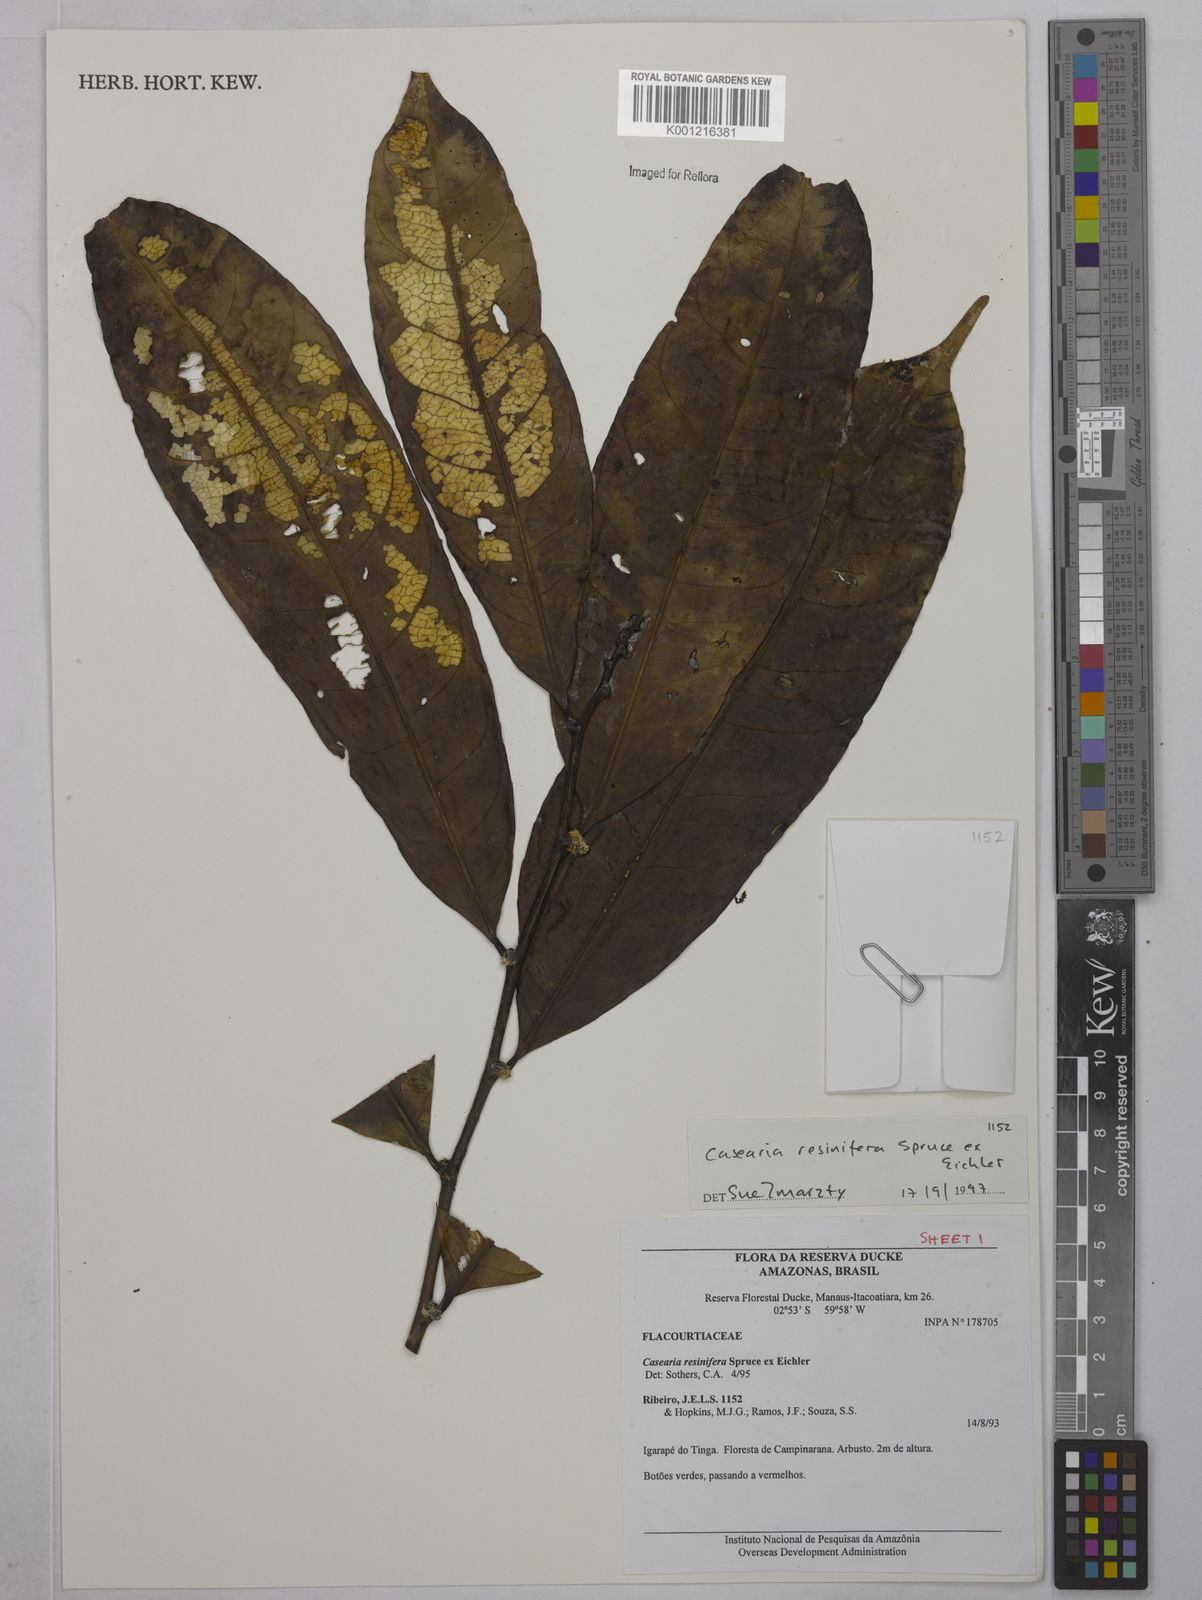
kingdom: Plantae
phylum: Tracheophyta
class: Magnoliopsida
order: Malpighiales
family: Salicaceae
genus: Casearia
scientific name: Casearia resinifera
